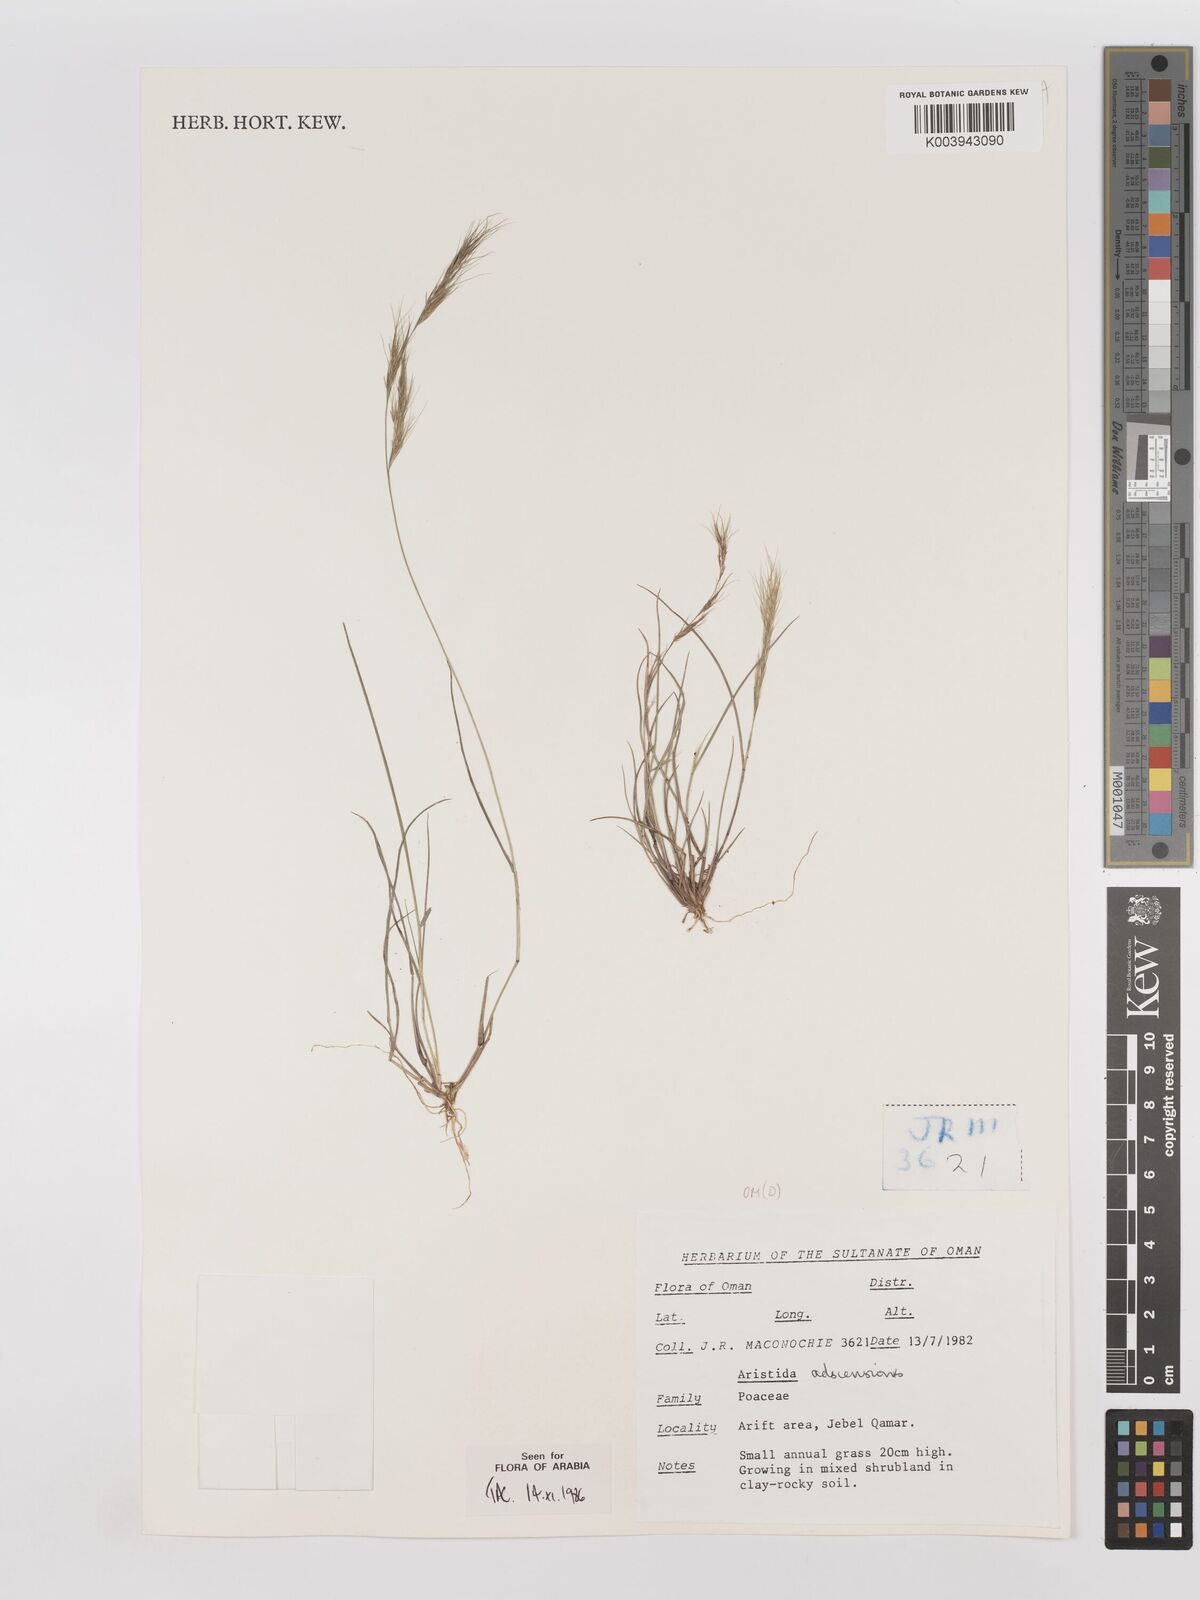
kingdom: Plantae
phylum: Tracheophyta
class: Liliopsida
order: Poales
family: Poaceae
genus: Aristida
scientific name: Aristida adscensionis
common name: Sixweeks threeawn
